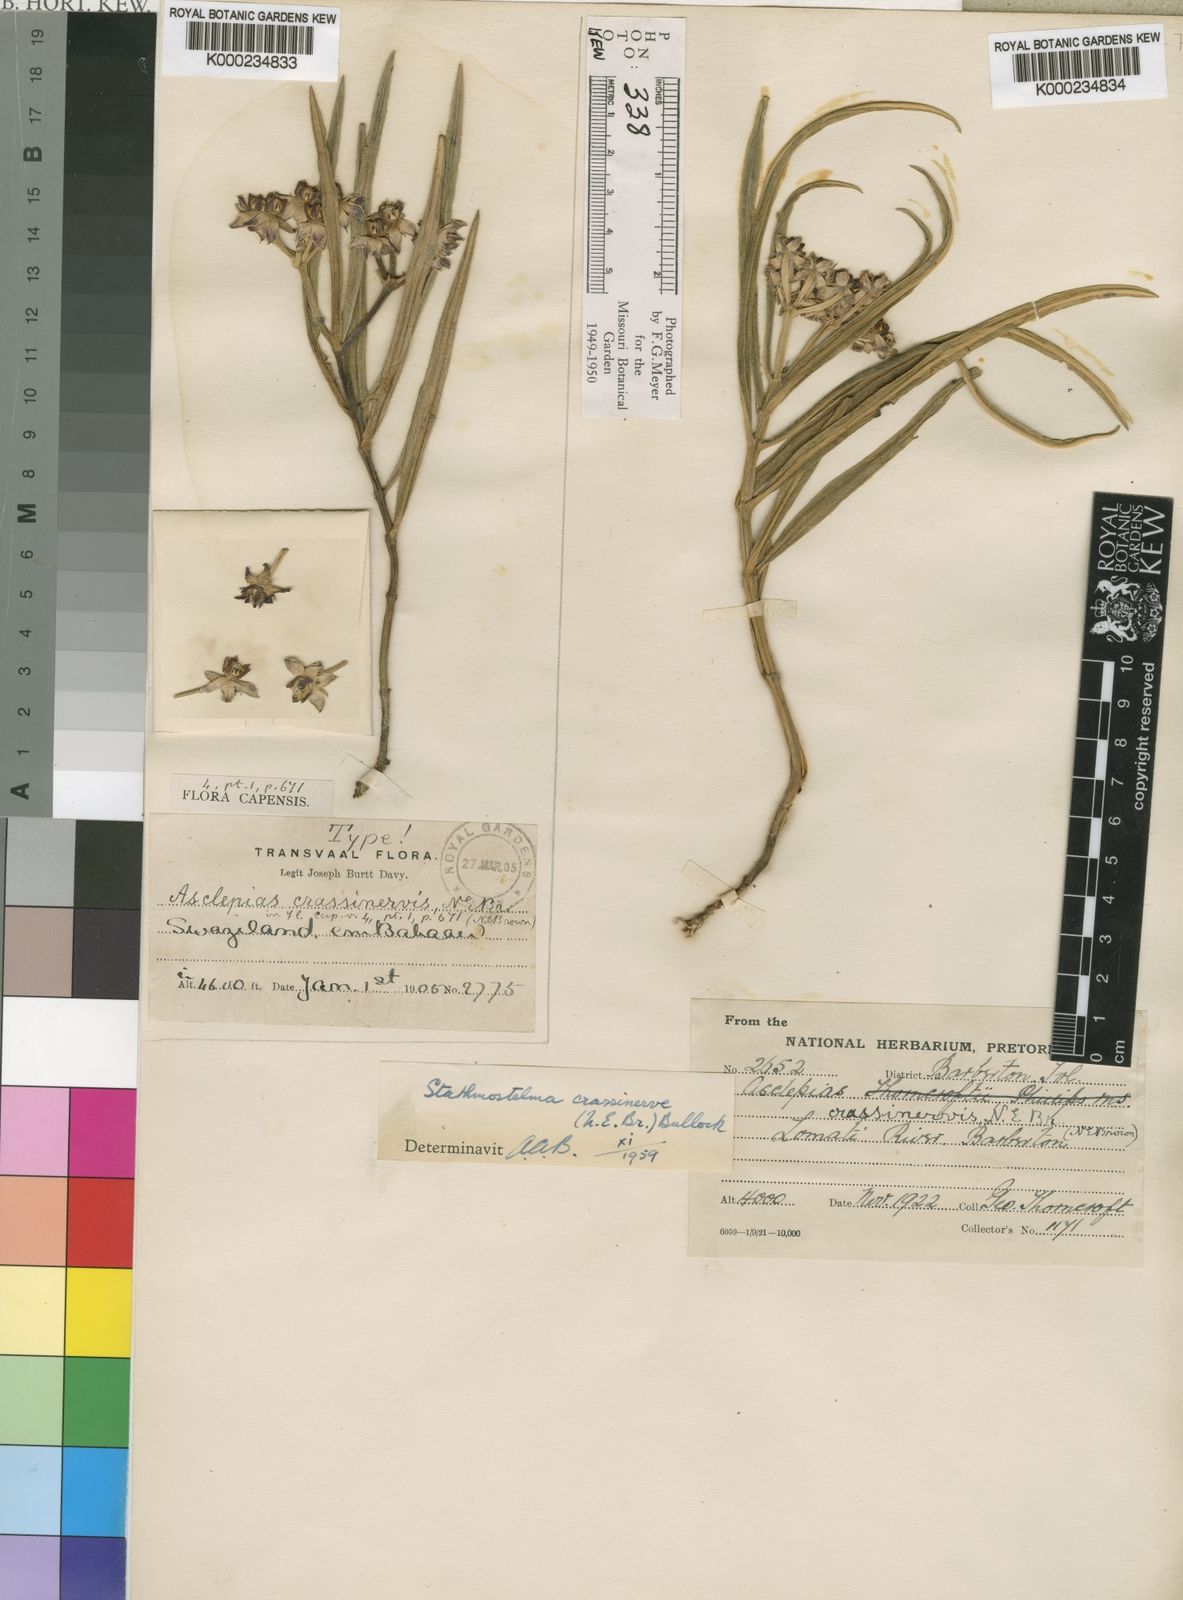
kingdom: Plantae
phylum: Tracheophyta
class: Magnoliopsida
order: Gentianales
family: Apocynaceae
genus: Asclepias
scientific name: Asclepias crassinervis
